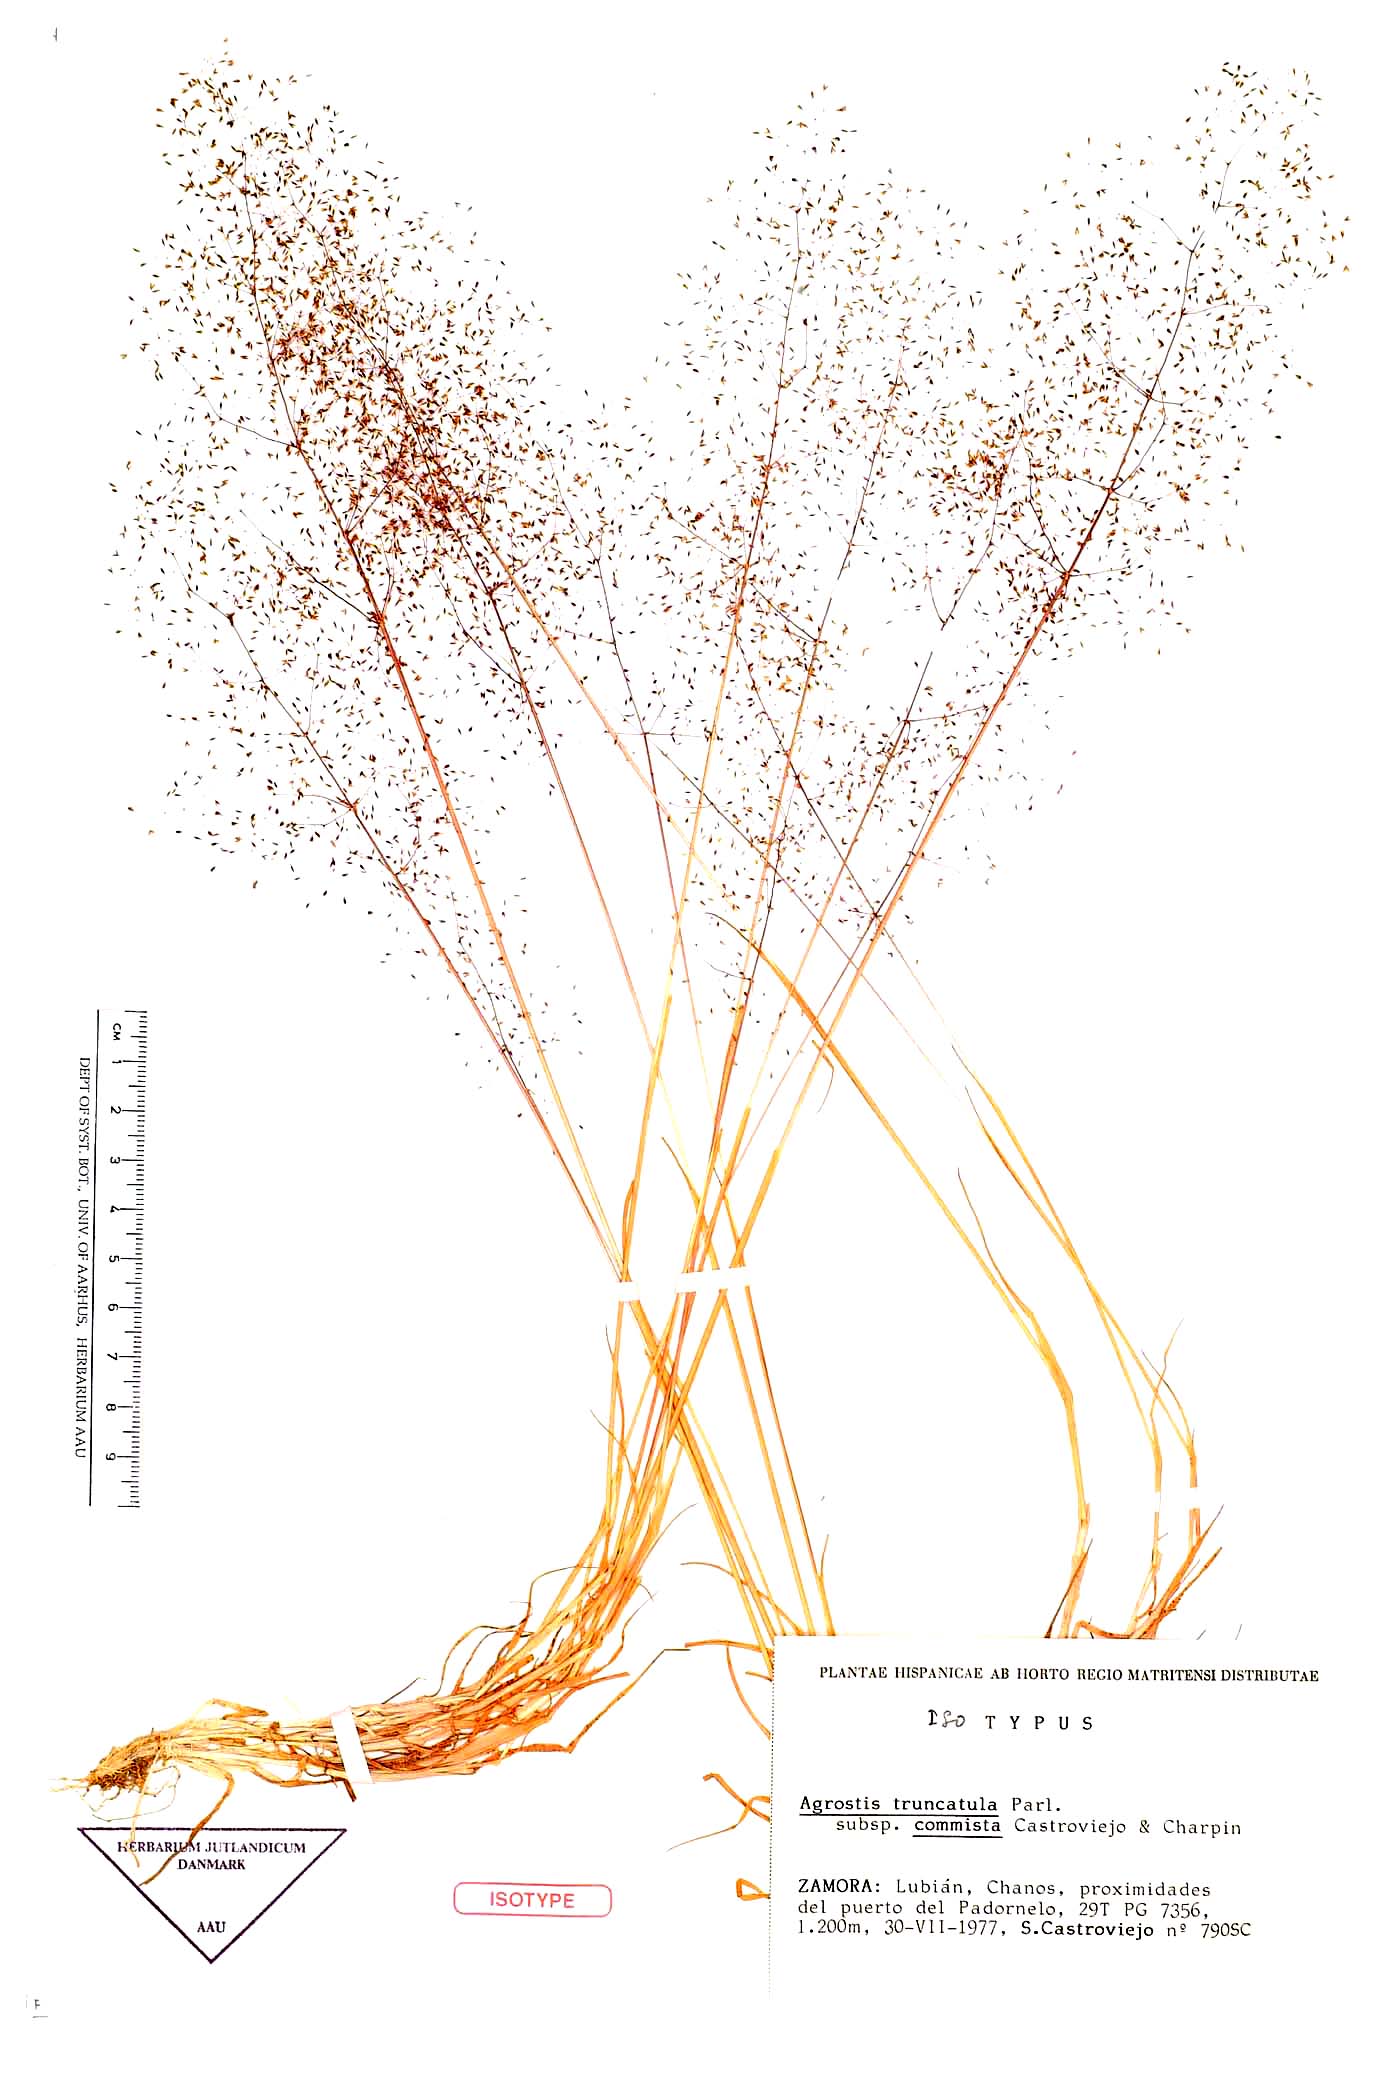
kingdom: Plantae
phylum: Tracheophyta
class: Liliopsida
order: Poales
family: Poaceae
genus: Agrostula
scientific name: Agrostula truncatula
